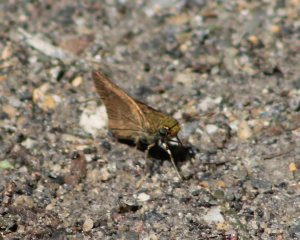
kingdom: Animalia
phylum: Arthropoda
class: Insecta
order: Lepidoptera
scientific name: Lepidoptera
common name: Butterflies
